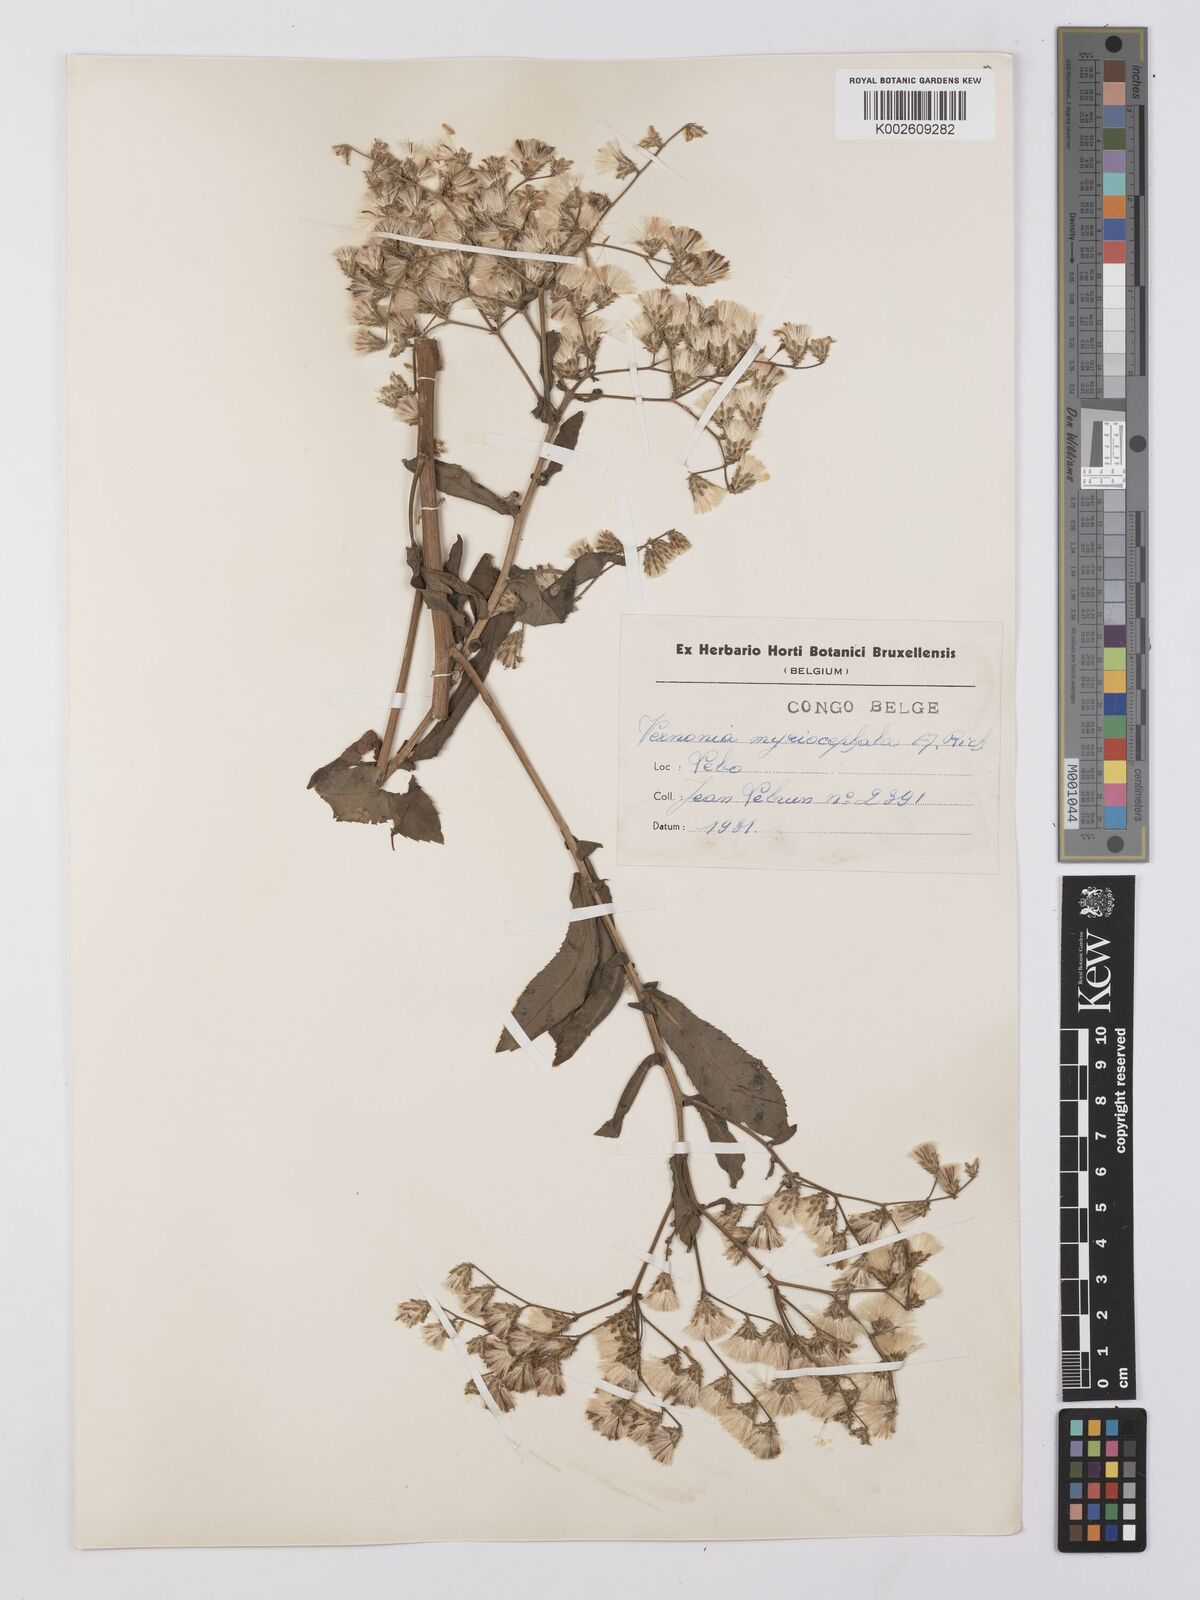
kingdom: Plantae
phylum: Tracheophyta
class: Magnoliopsida
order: Asterales
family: Asteraceae
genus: Gymnanthemum
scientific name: Gymnanthemum theophrastifolium
